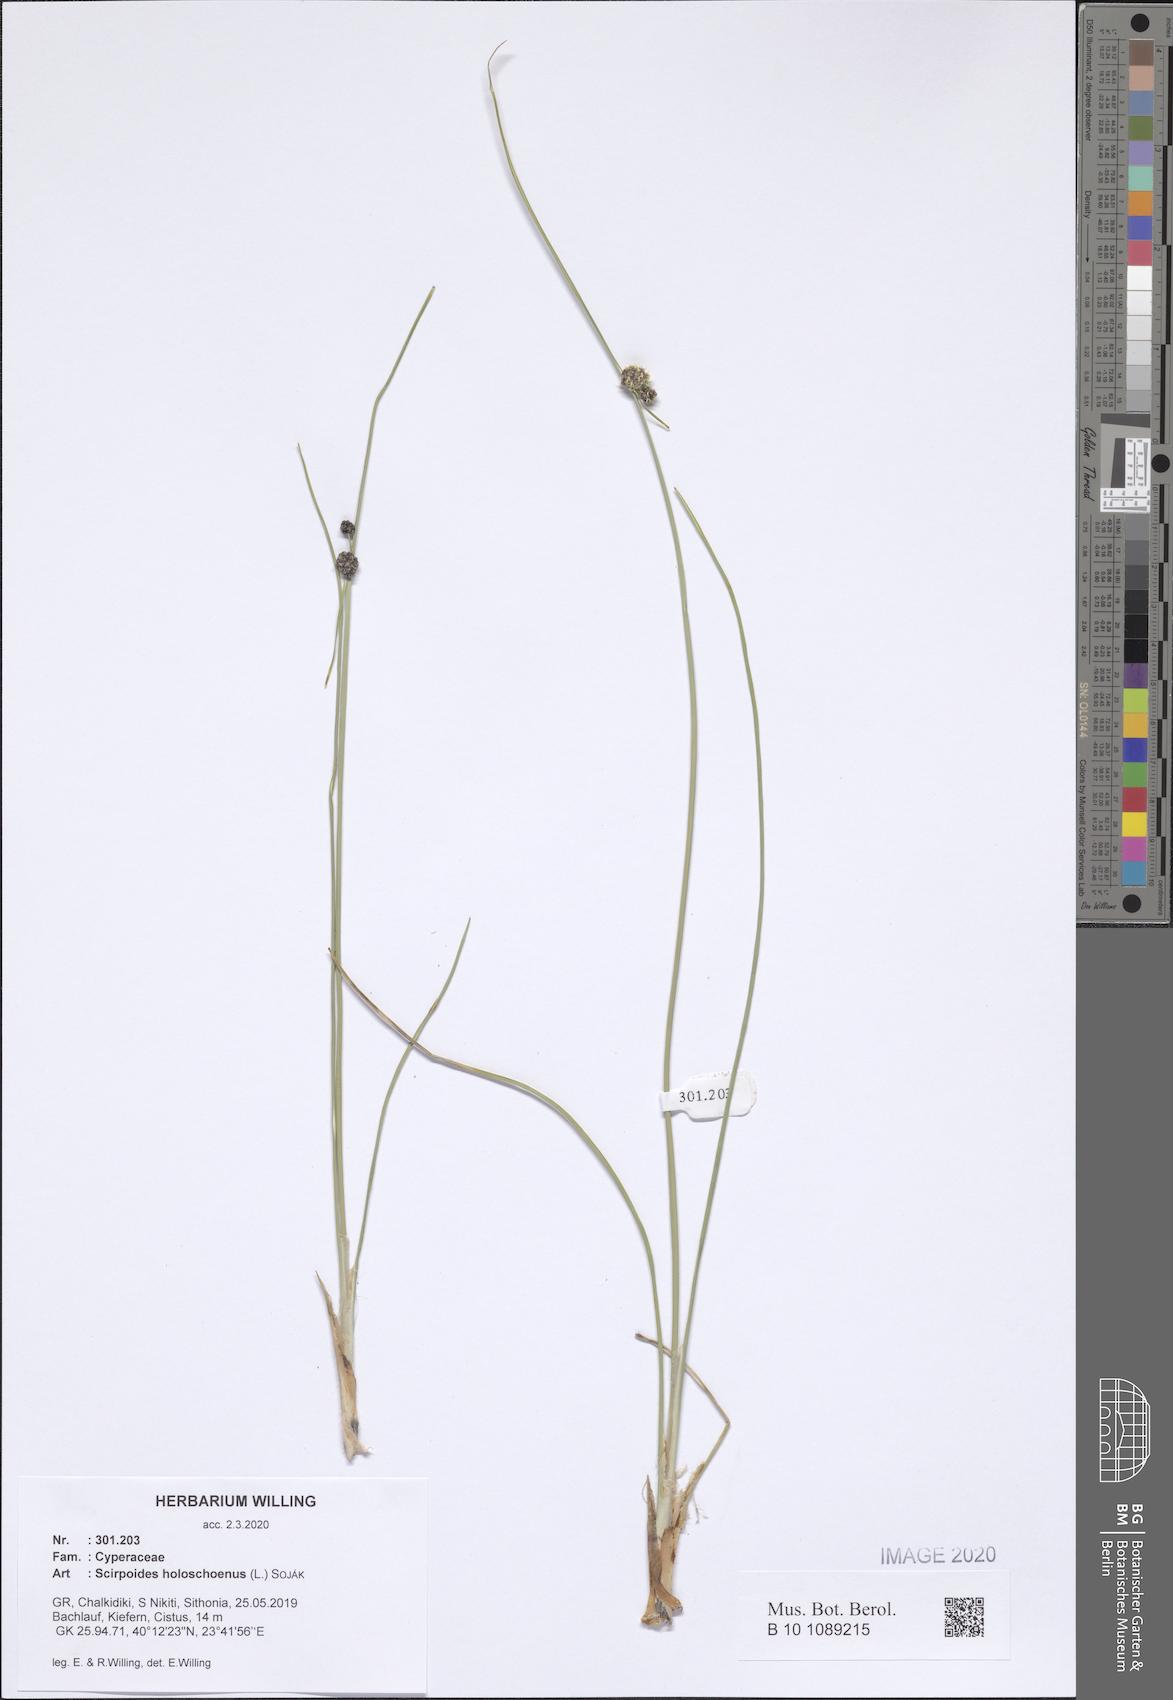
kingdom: Plantae
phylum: Tracheophyta
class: Liliopsida
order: Poales
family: Cyperaceae
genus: Scirpoides
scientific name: Scirpoides holoschoenus
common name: Round-headed club-rush
